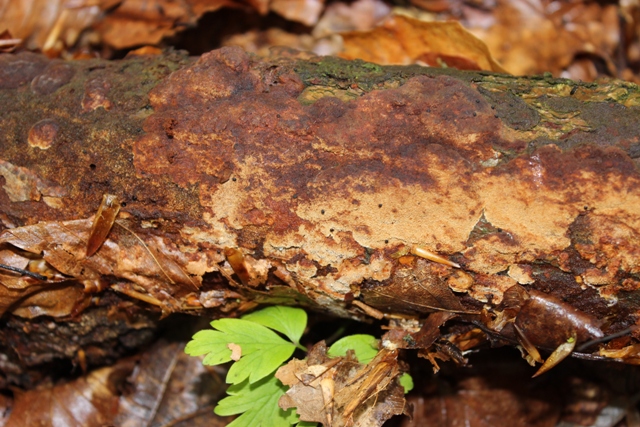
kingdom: Fungi
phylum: Basidiomycota
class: Agaricomycetes
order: Hymenochaetales
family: Hymenochaetaceae
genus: Fuscoporia
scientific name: Fuscoporia ferrea
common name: skorpe-ildporesvamp
